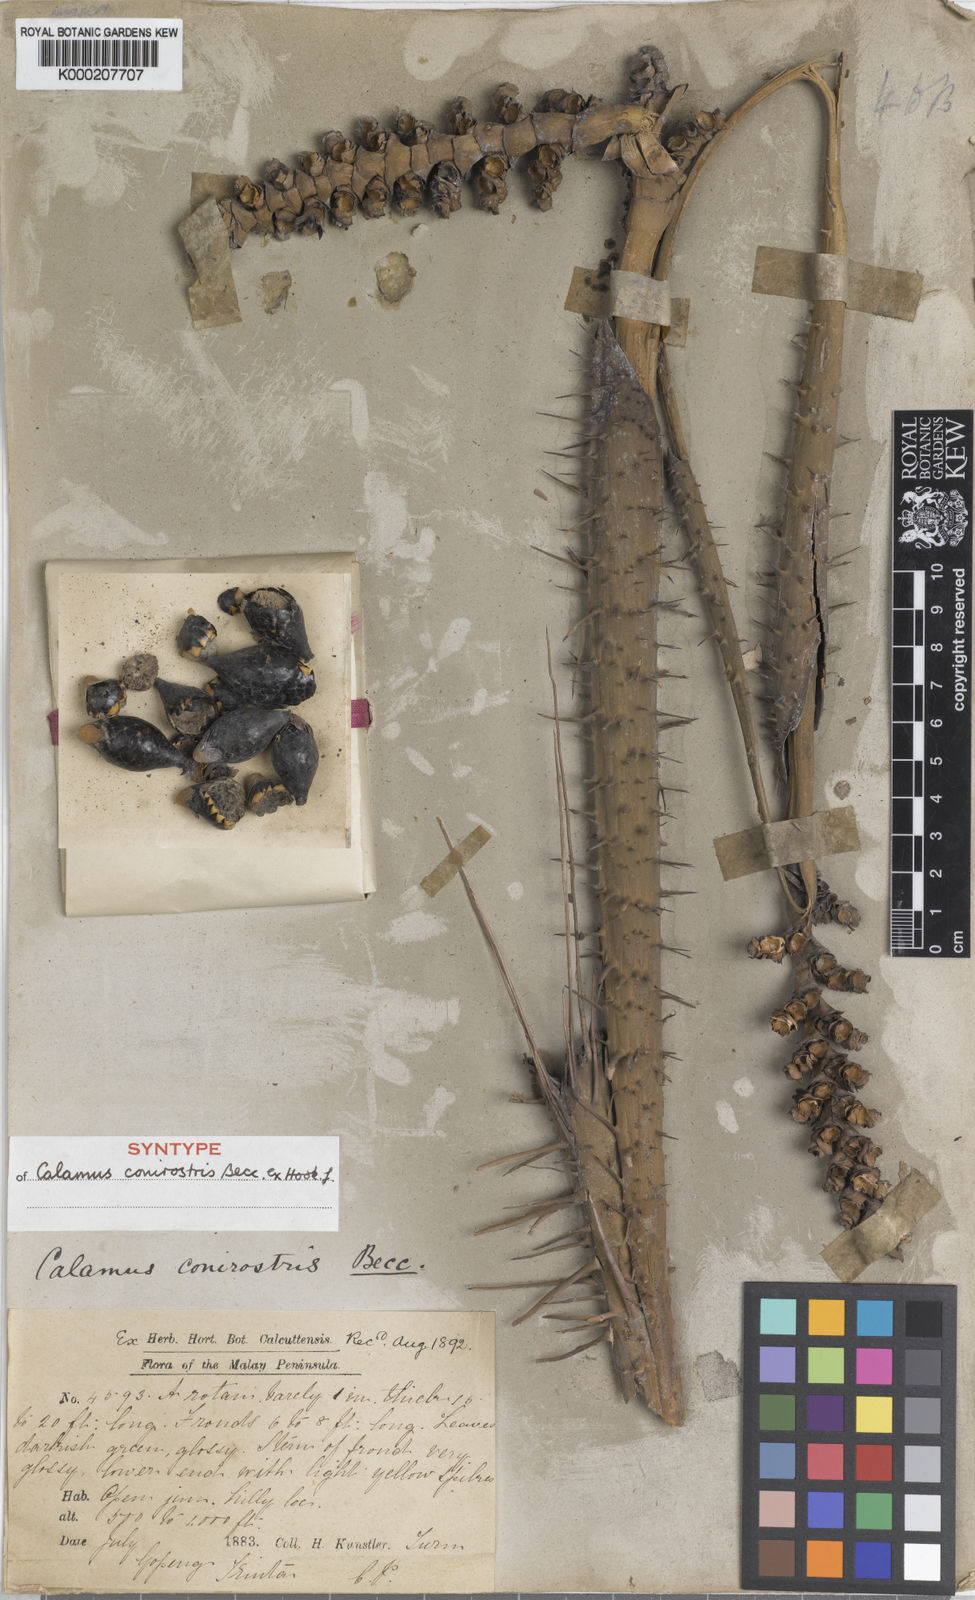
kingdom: Plantae
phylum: Tracheophyta
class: Liliopsida
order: Arecales
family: Arecaceae
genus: Calamus
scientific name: Calamus conirostris
